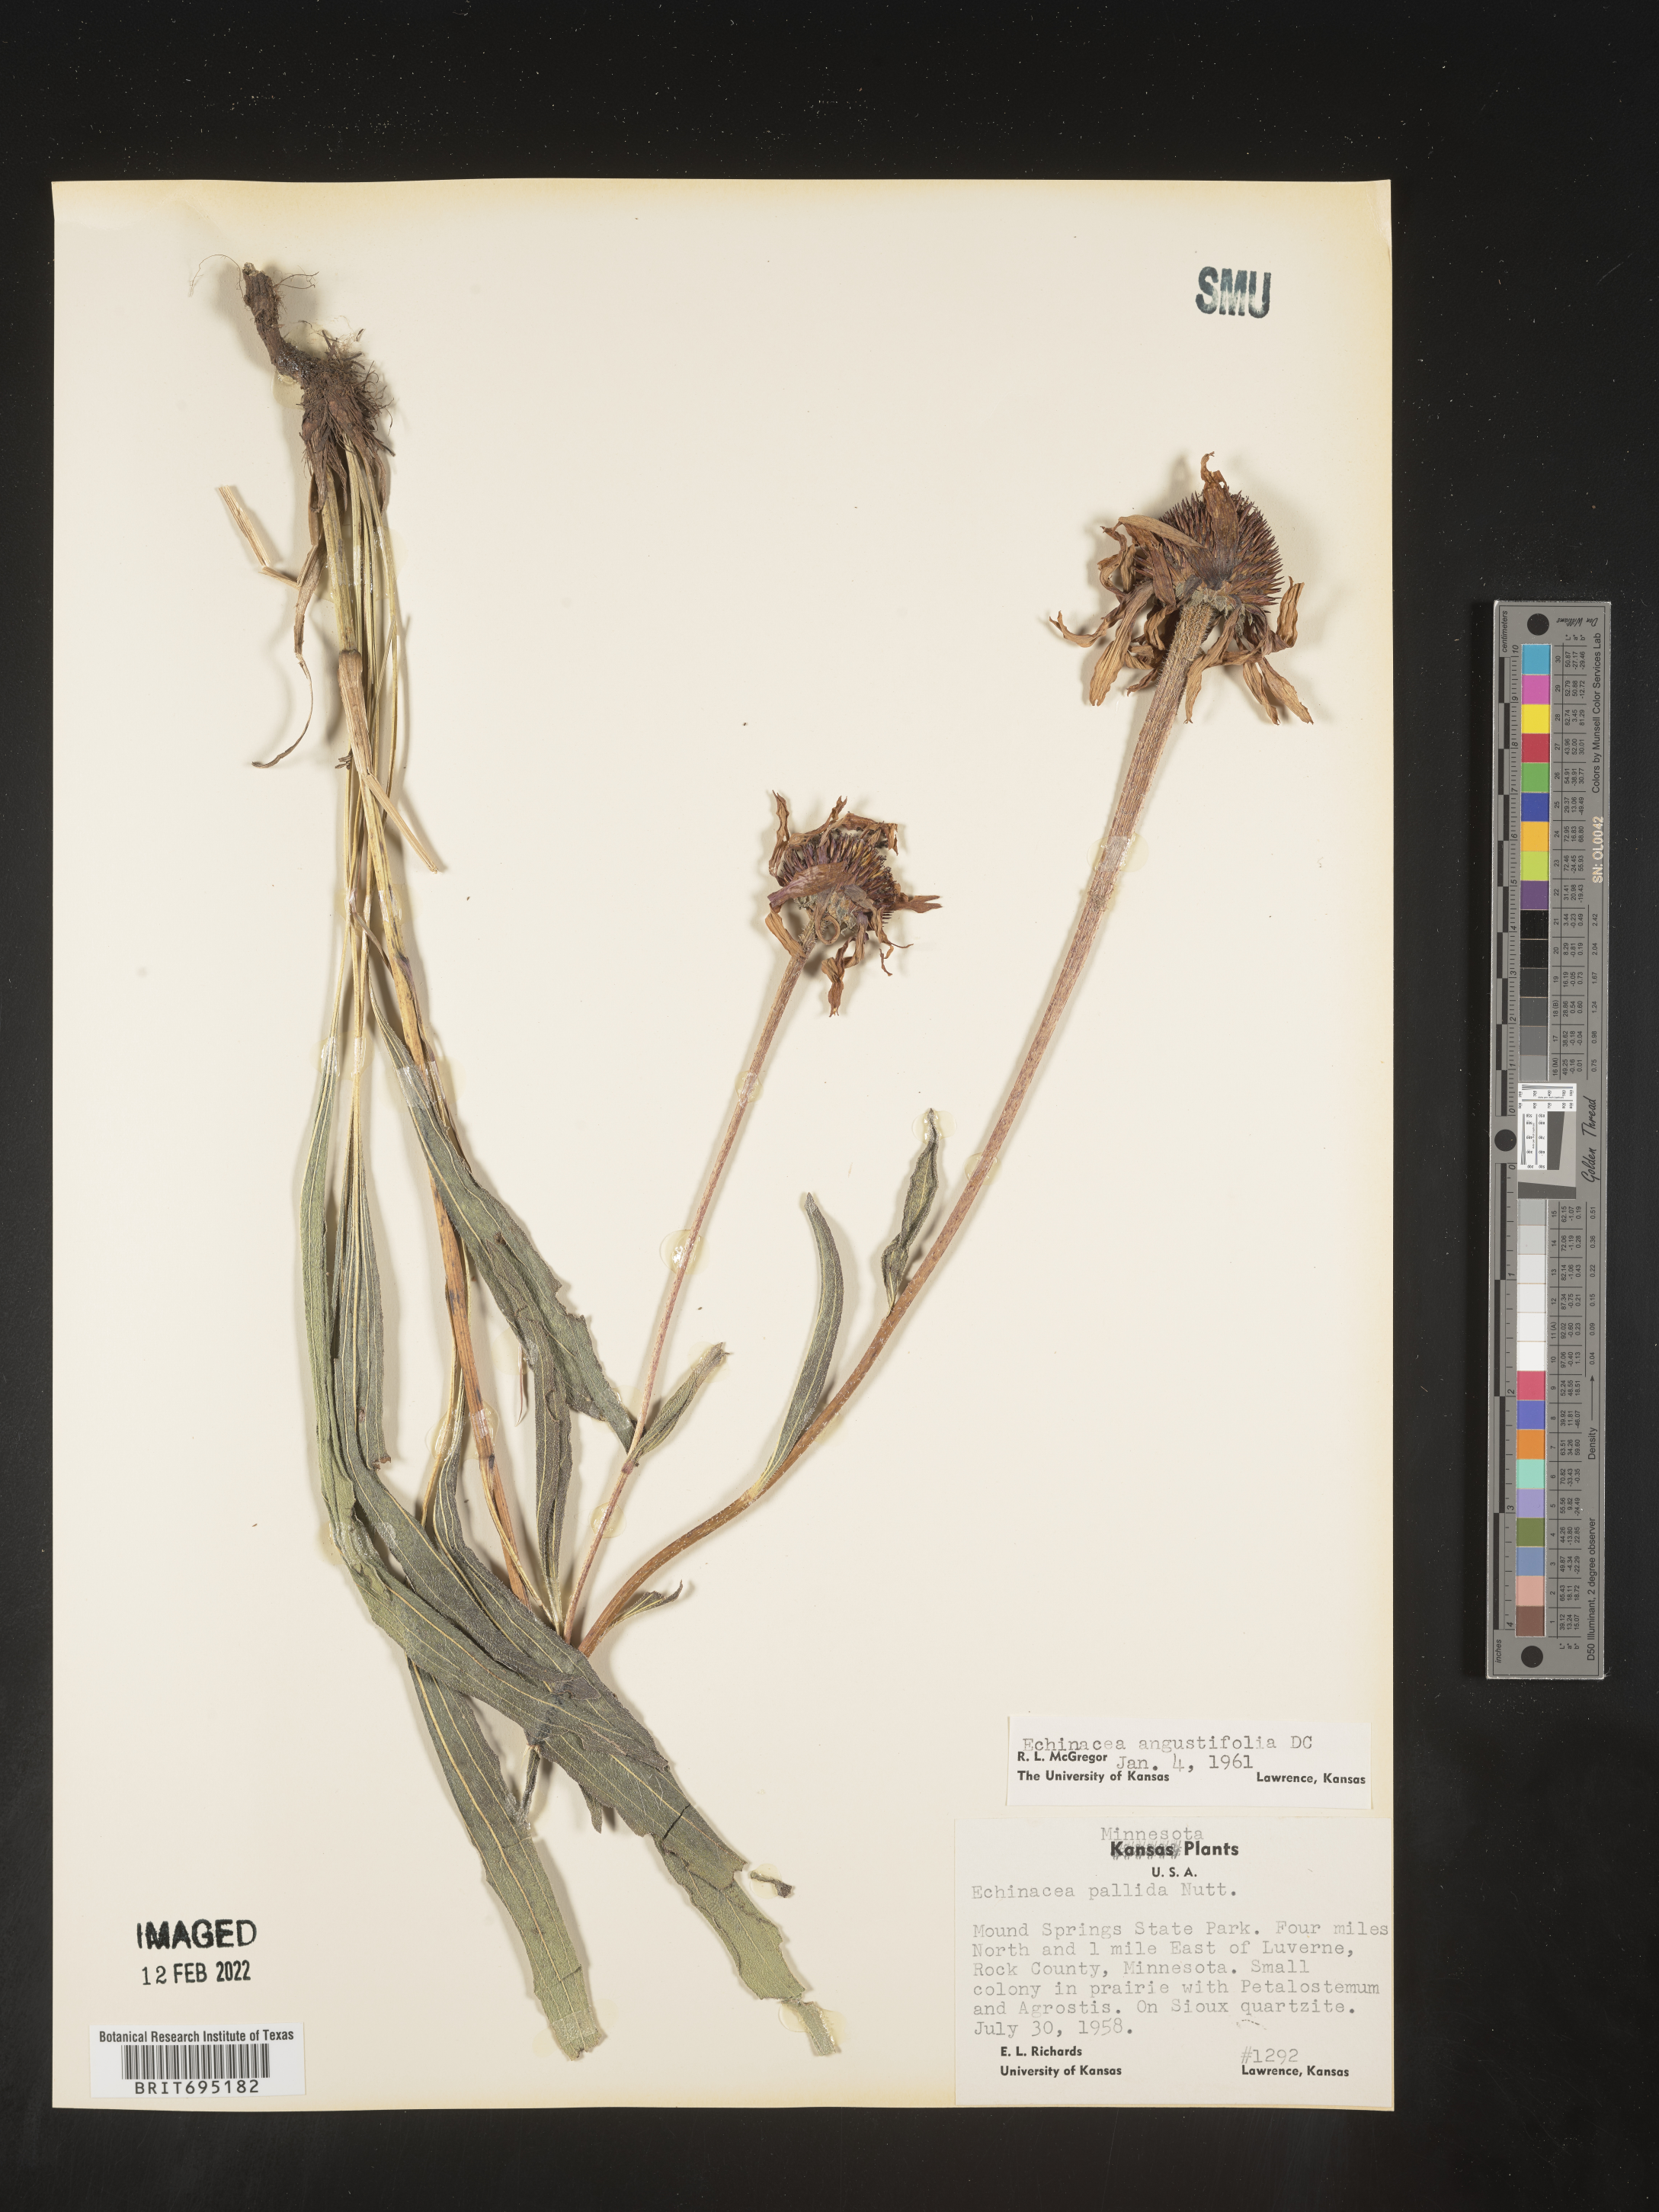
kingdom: Plantae
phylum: Tracheophyta
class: Magnoliopsida
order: Asterales
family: Asteraceae
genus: Echinacea
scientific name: Echinacea angustifolia
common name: Black-sampson echinacea
